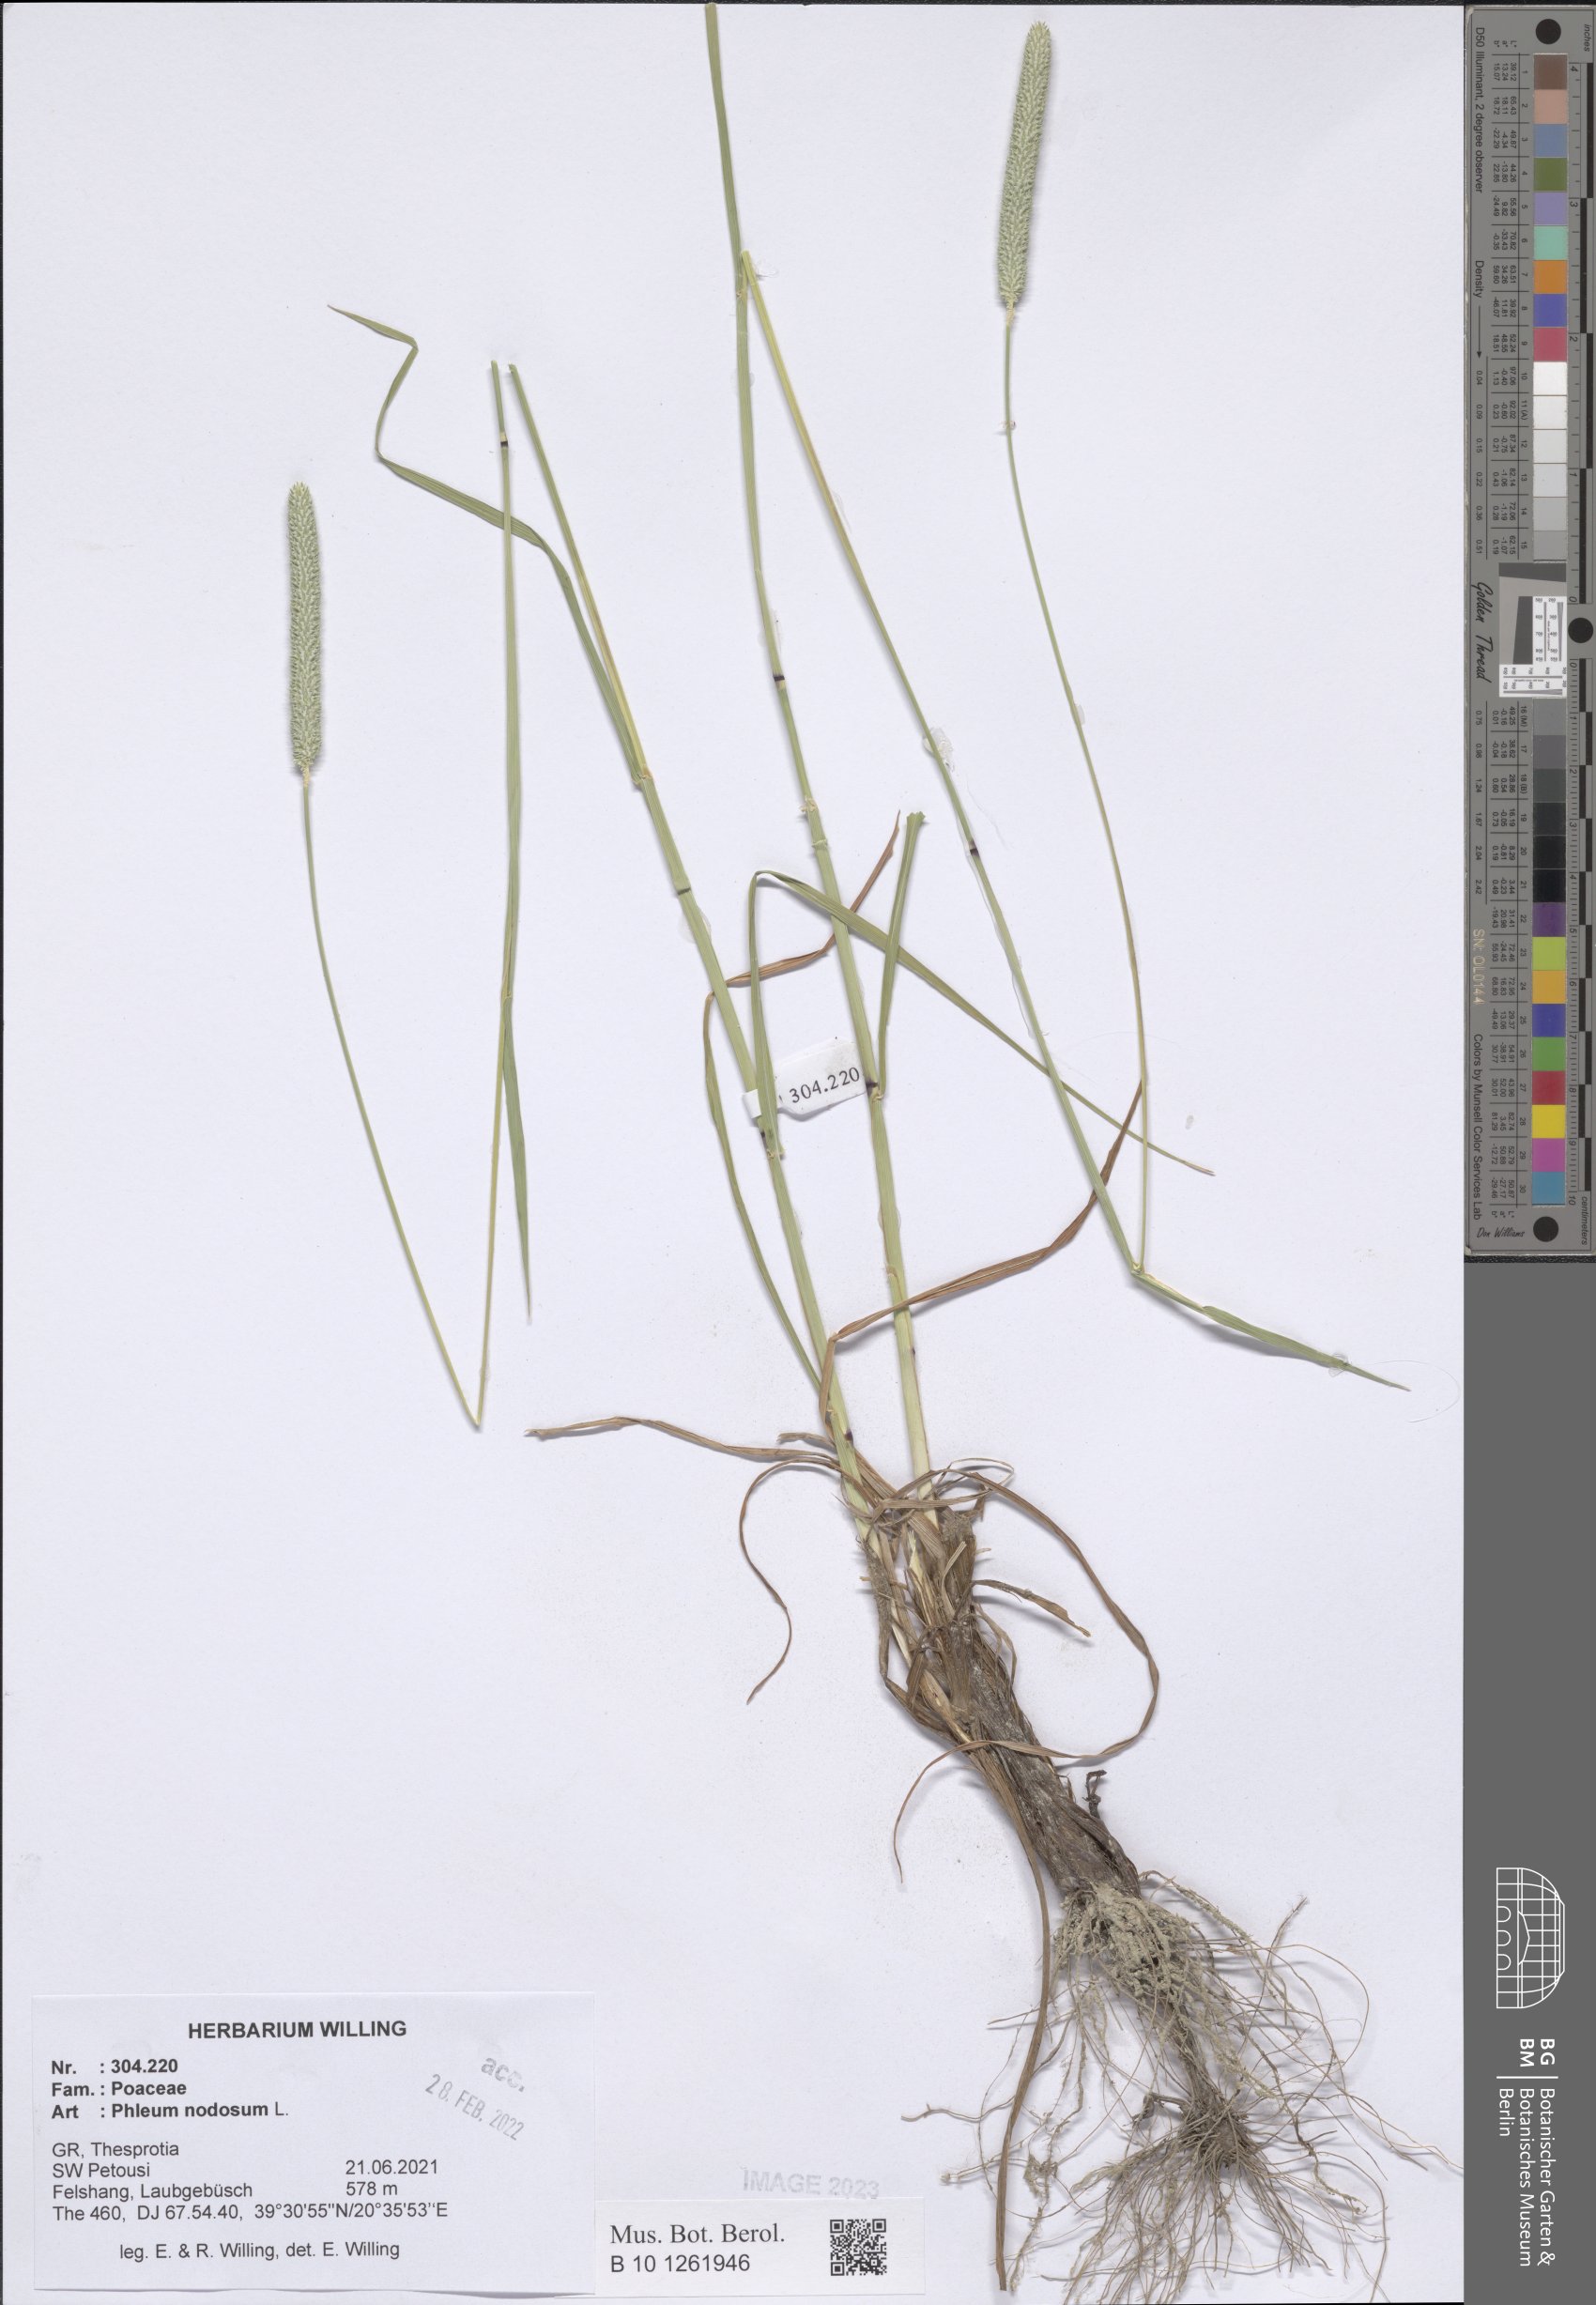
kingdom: Plantae
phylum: Tracheophyta
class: Liliopsida
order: Poales
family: Poaceae
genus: Phleum
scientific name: Phleum pratense
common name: Timothy grass
